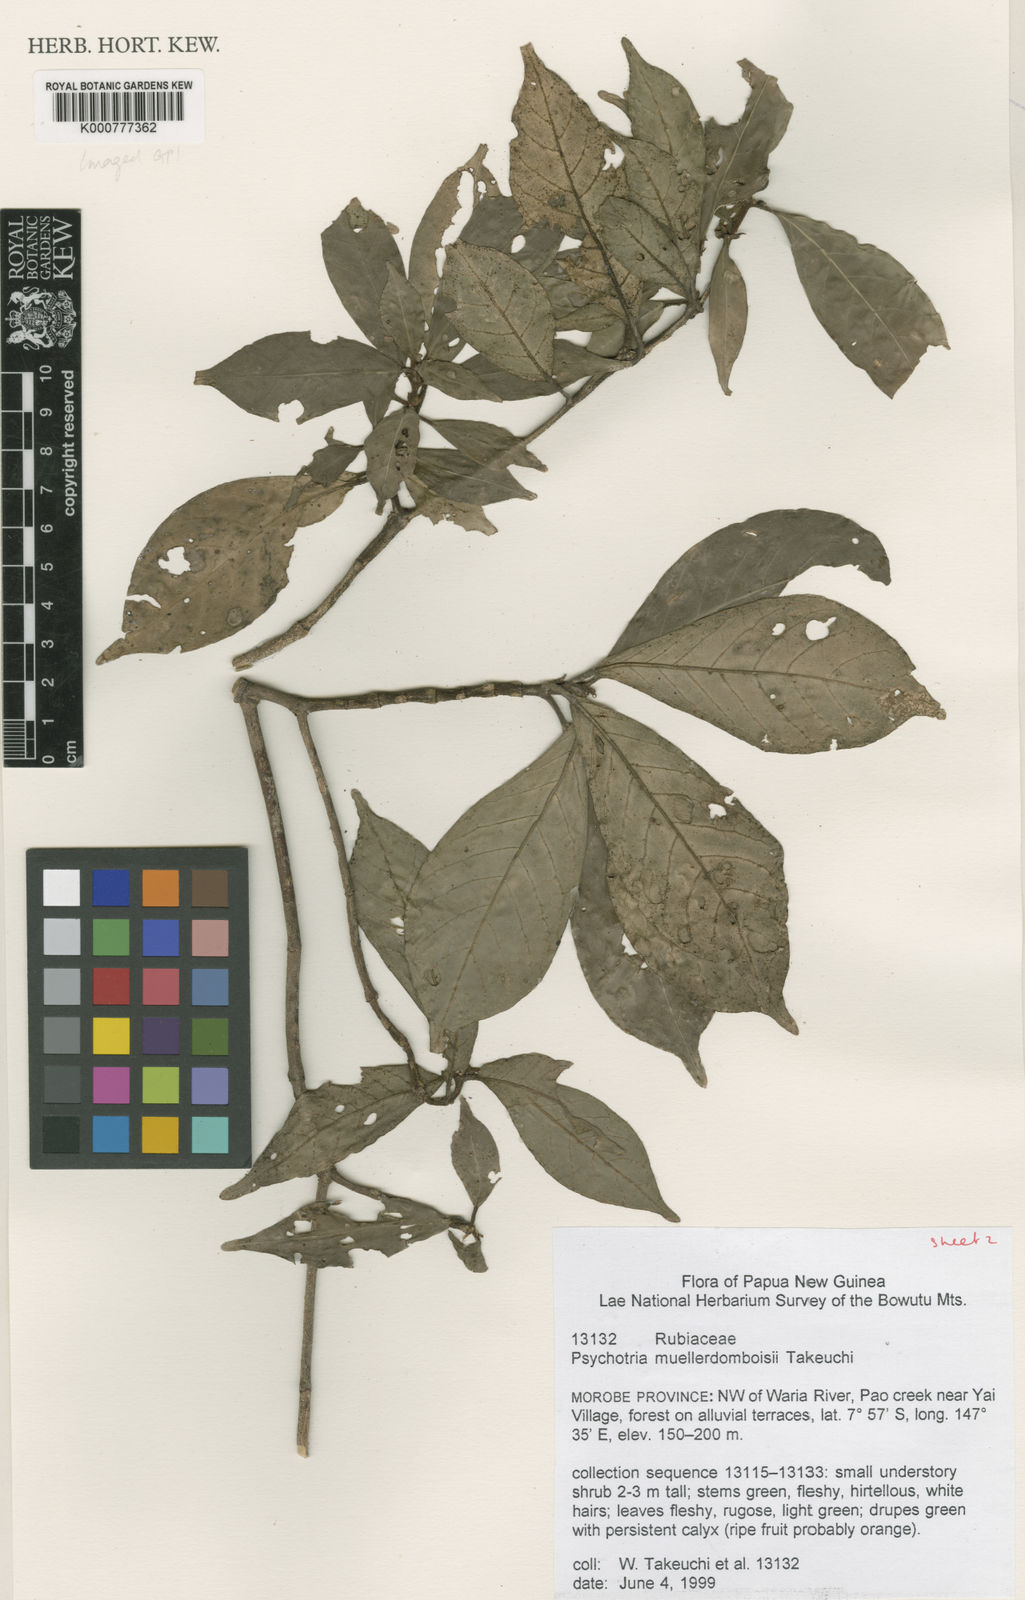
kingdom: Plantae
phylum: Tracheophyta
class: Magnoliopsida
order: Gentianales
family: Rubiaceae
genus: Psychotria
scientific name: Psychotria muellerdomboisii
